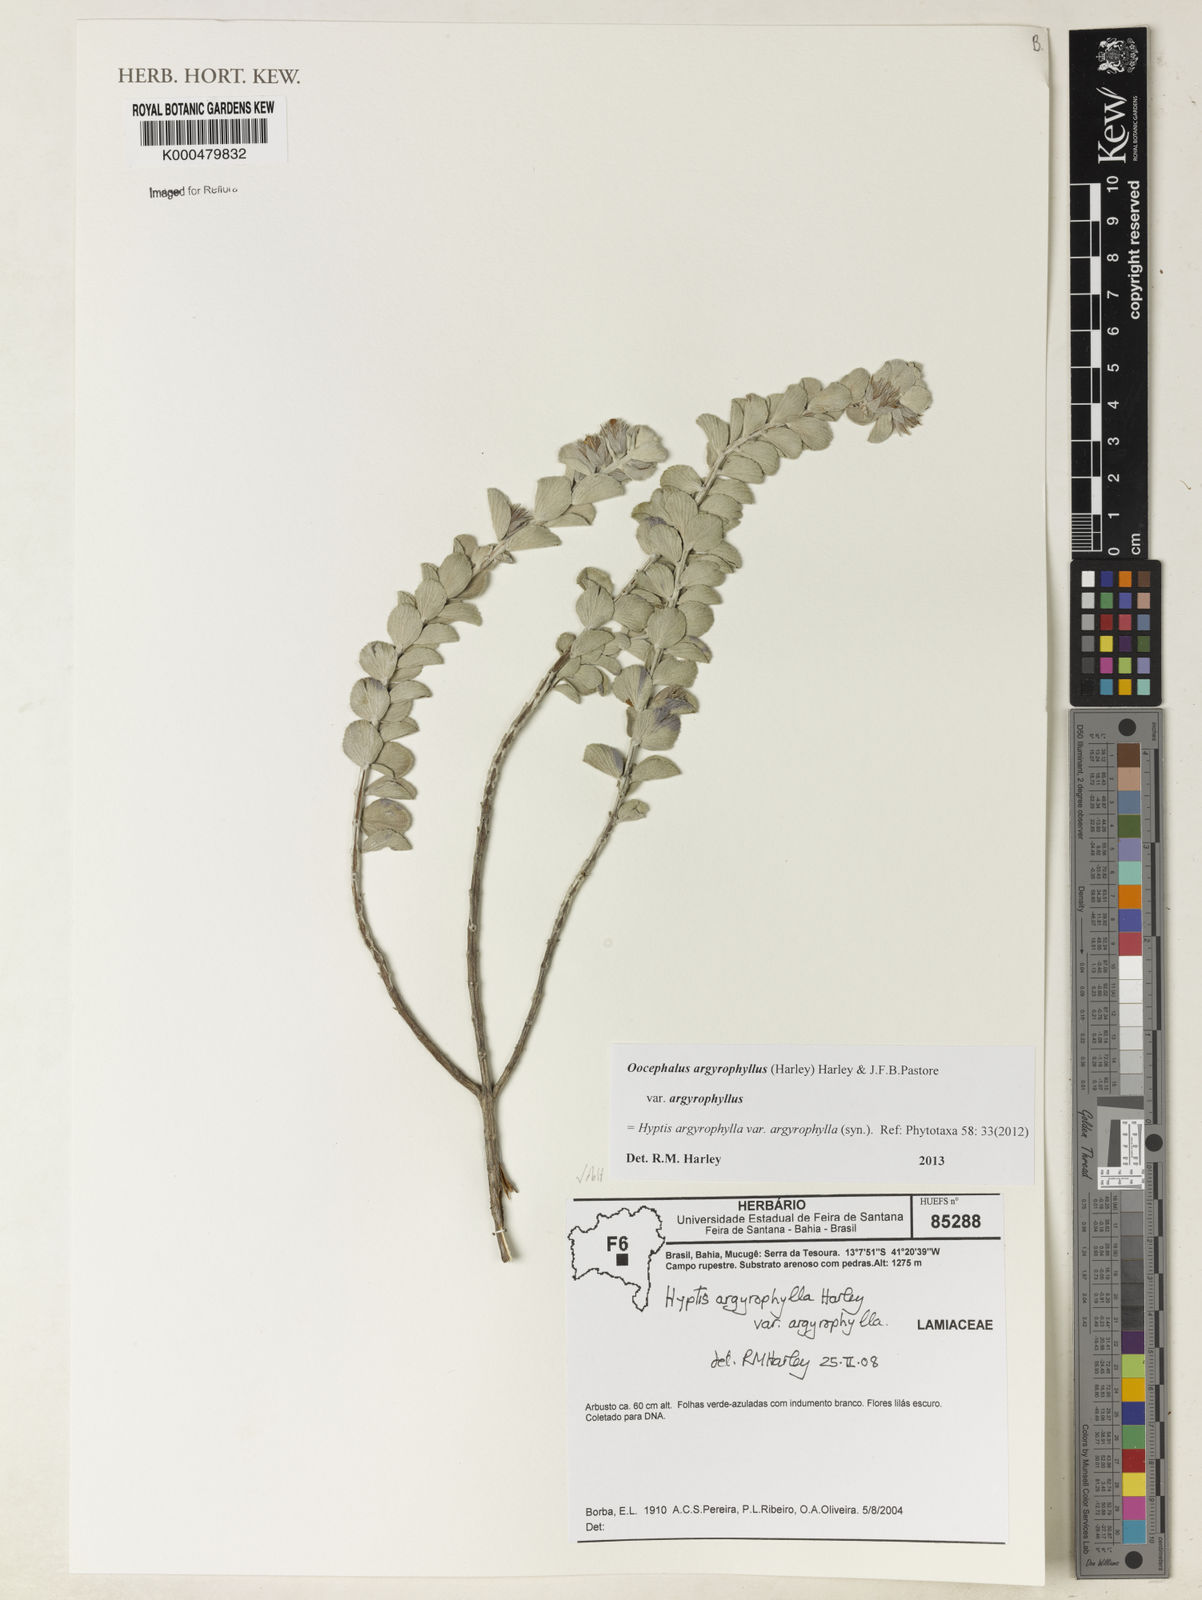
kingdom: Plantae
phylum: Tracheophyta
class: Magnoliopsida
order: Lamiales
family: Lamiaceae
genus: Oocephalus
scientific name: Oocephalus argyrophyllus
